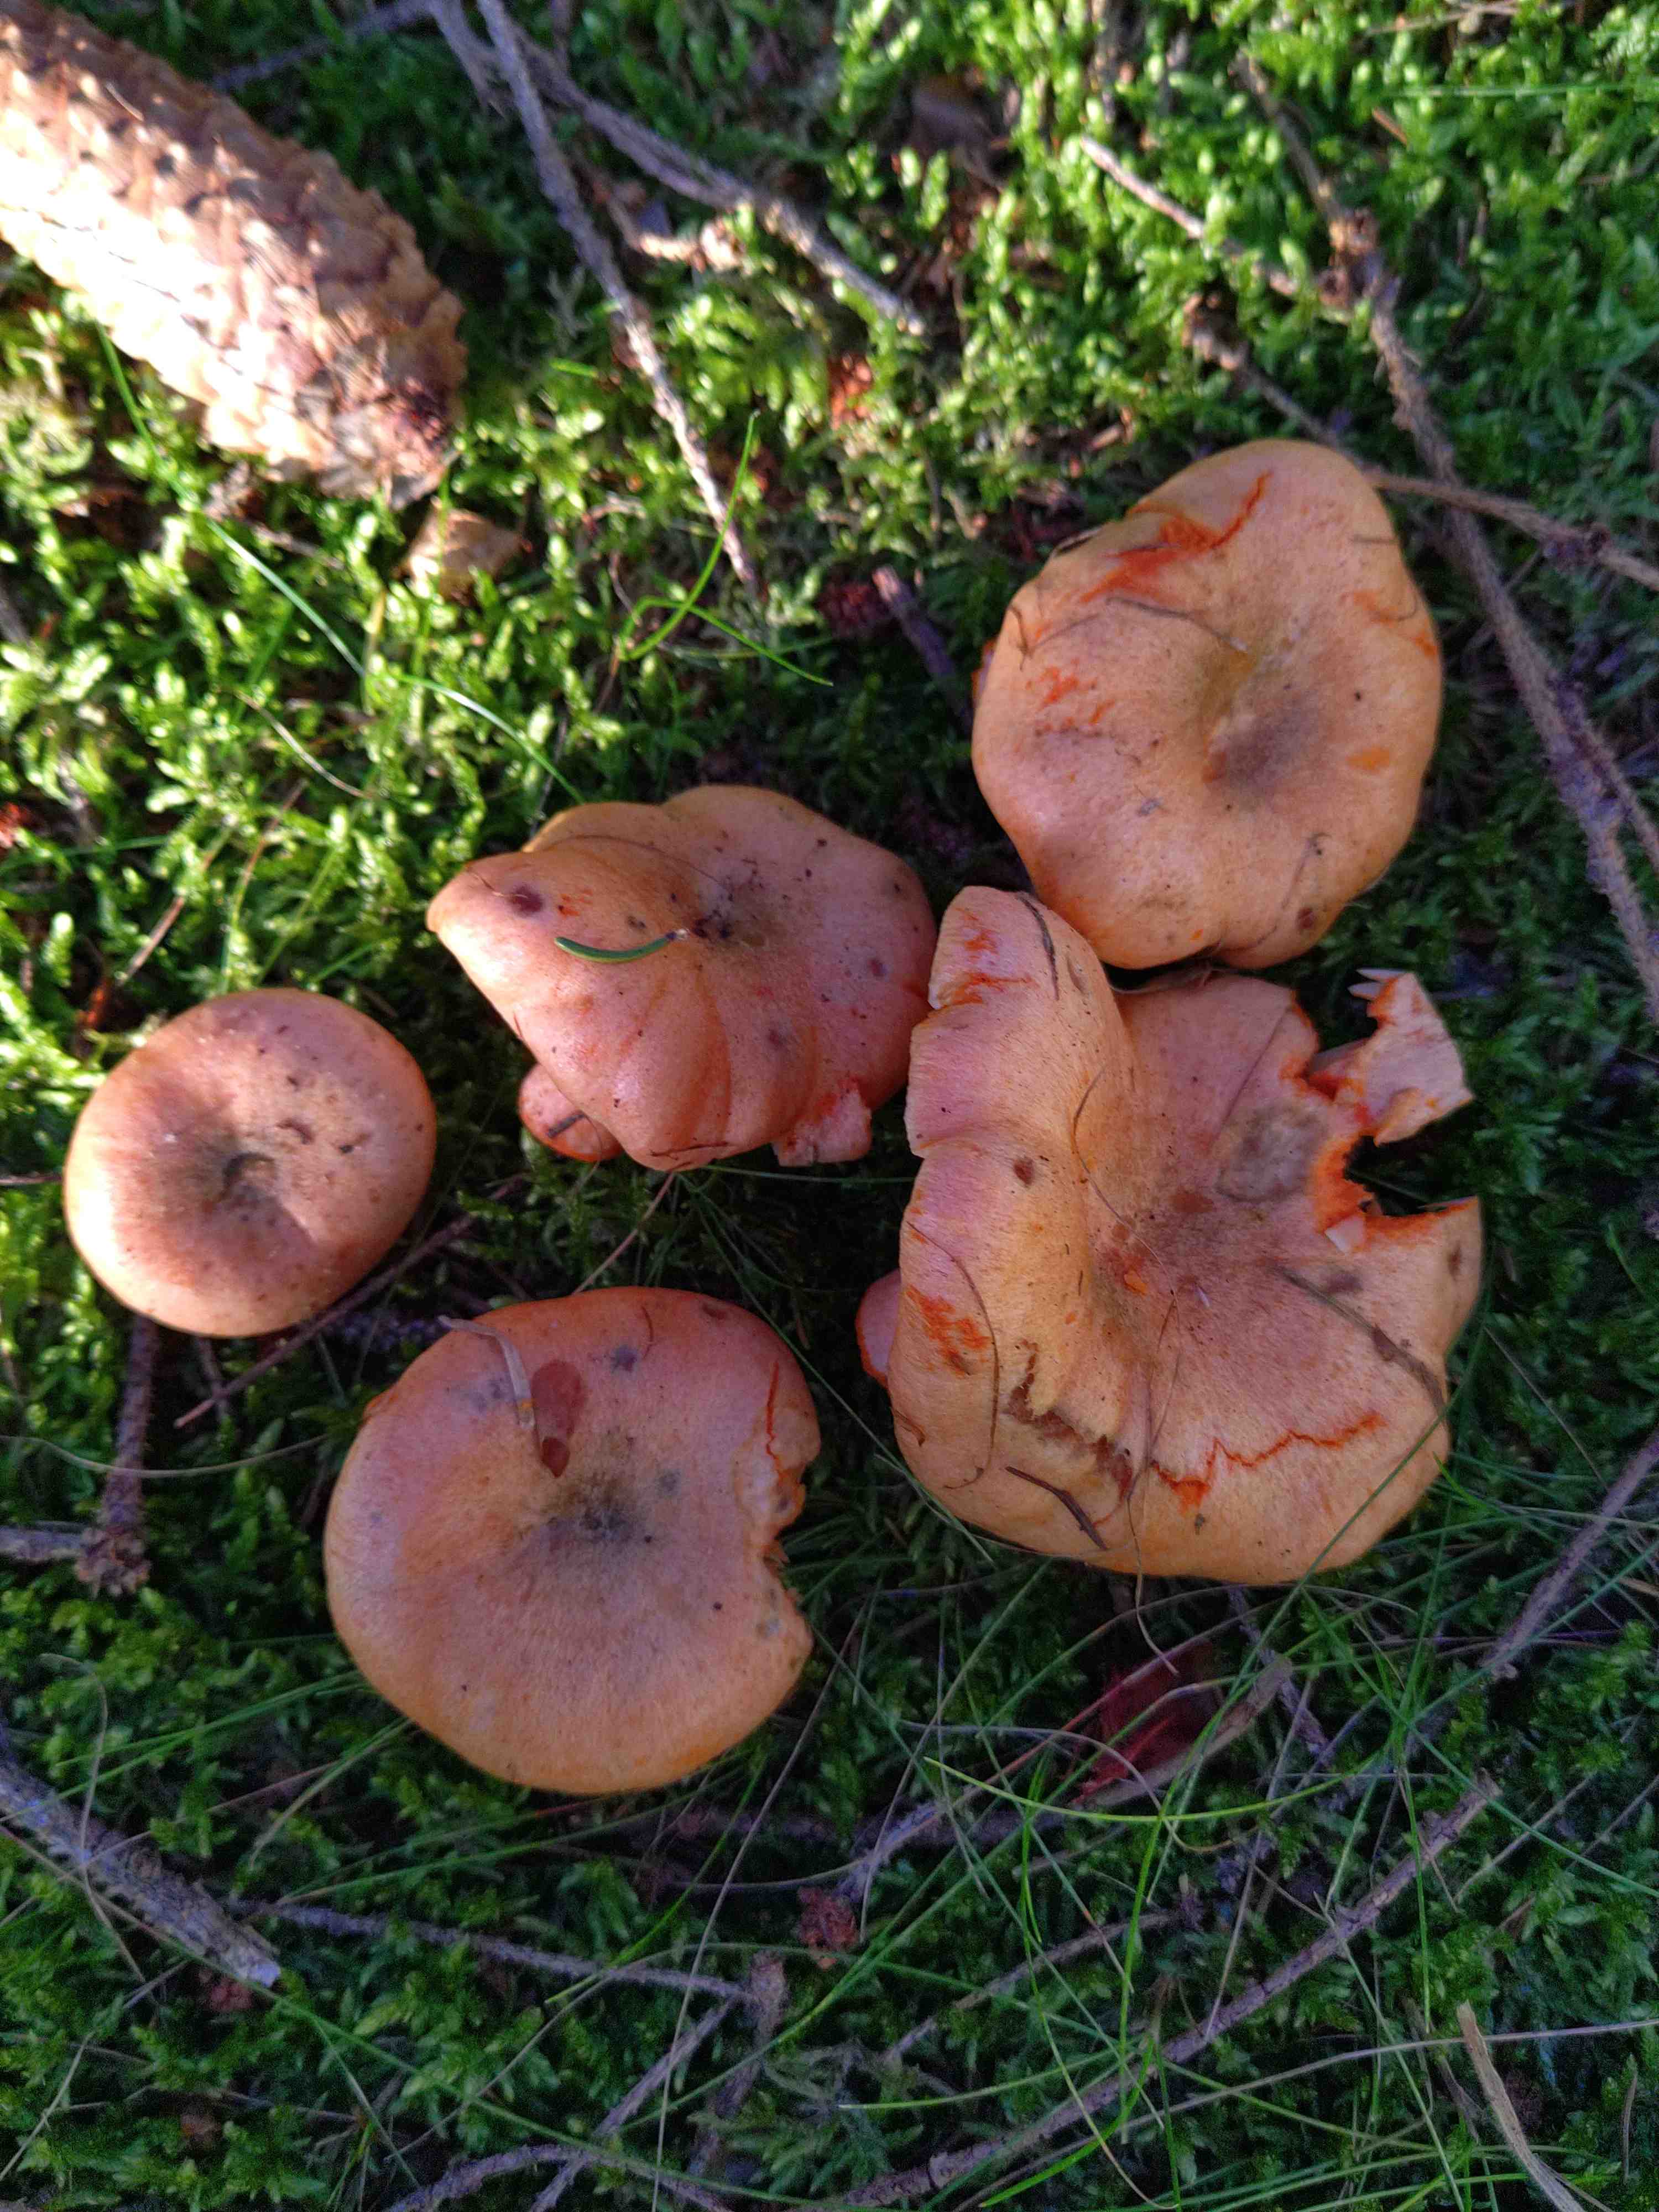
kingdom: Fungi
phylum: Basidiomycota
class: Agaricomycetes
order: Russulales
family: Russulaceae
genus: Lactarius
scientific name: Lactarius deterrimus
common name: gran-mælkehat
